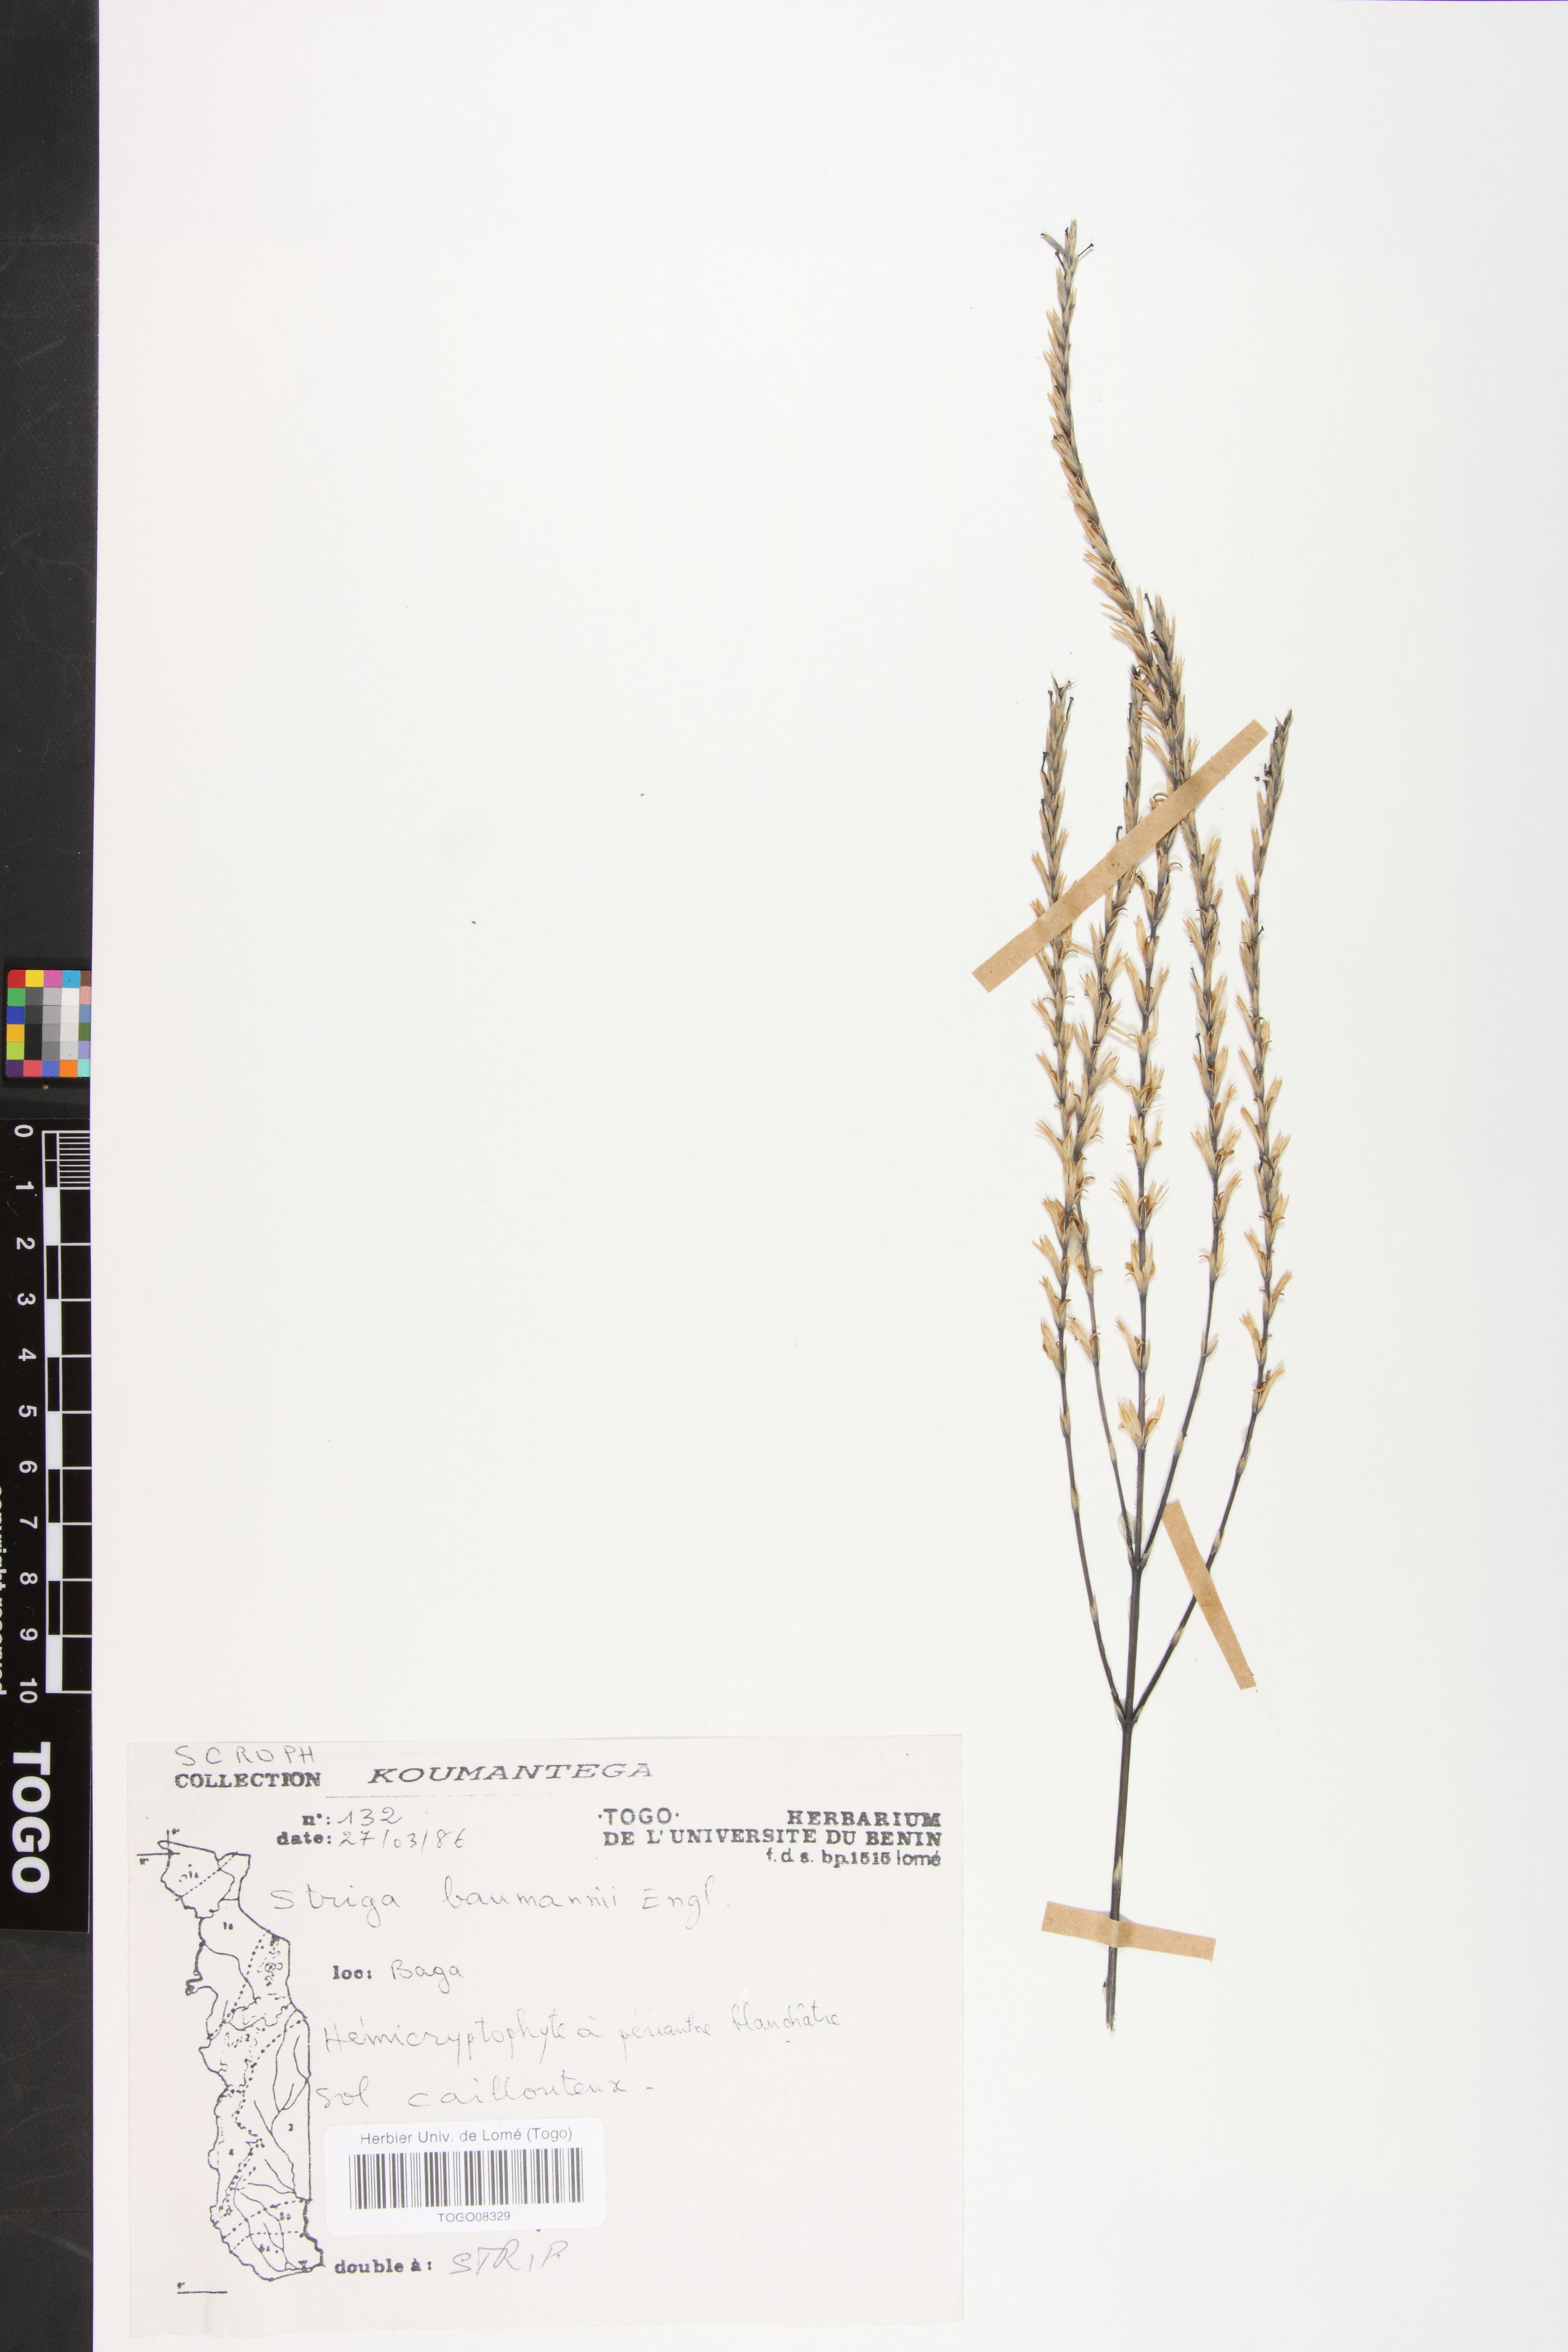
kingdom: Plantae
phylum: Tracheophyta
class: Magnoliopsida
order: Lamiales
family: Orobanchaceae
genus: Striga
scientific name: Striga baumannii
